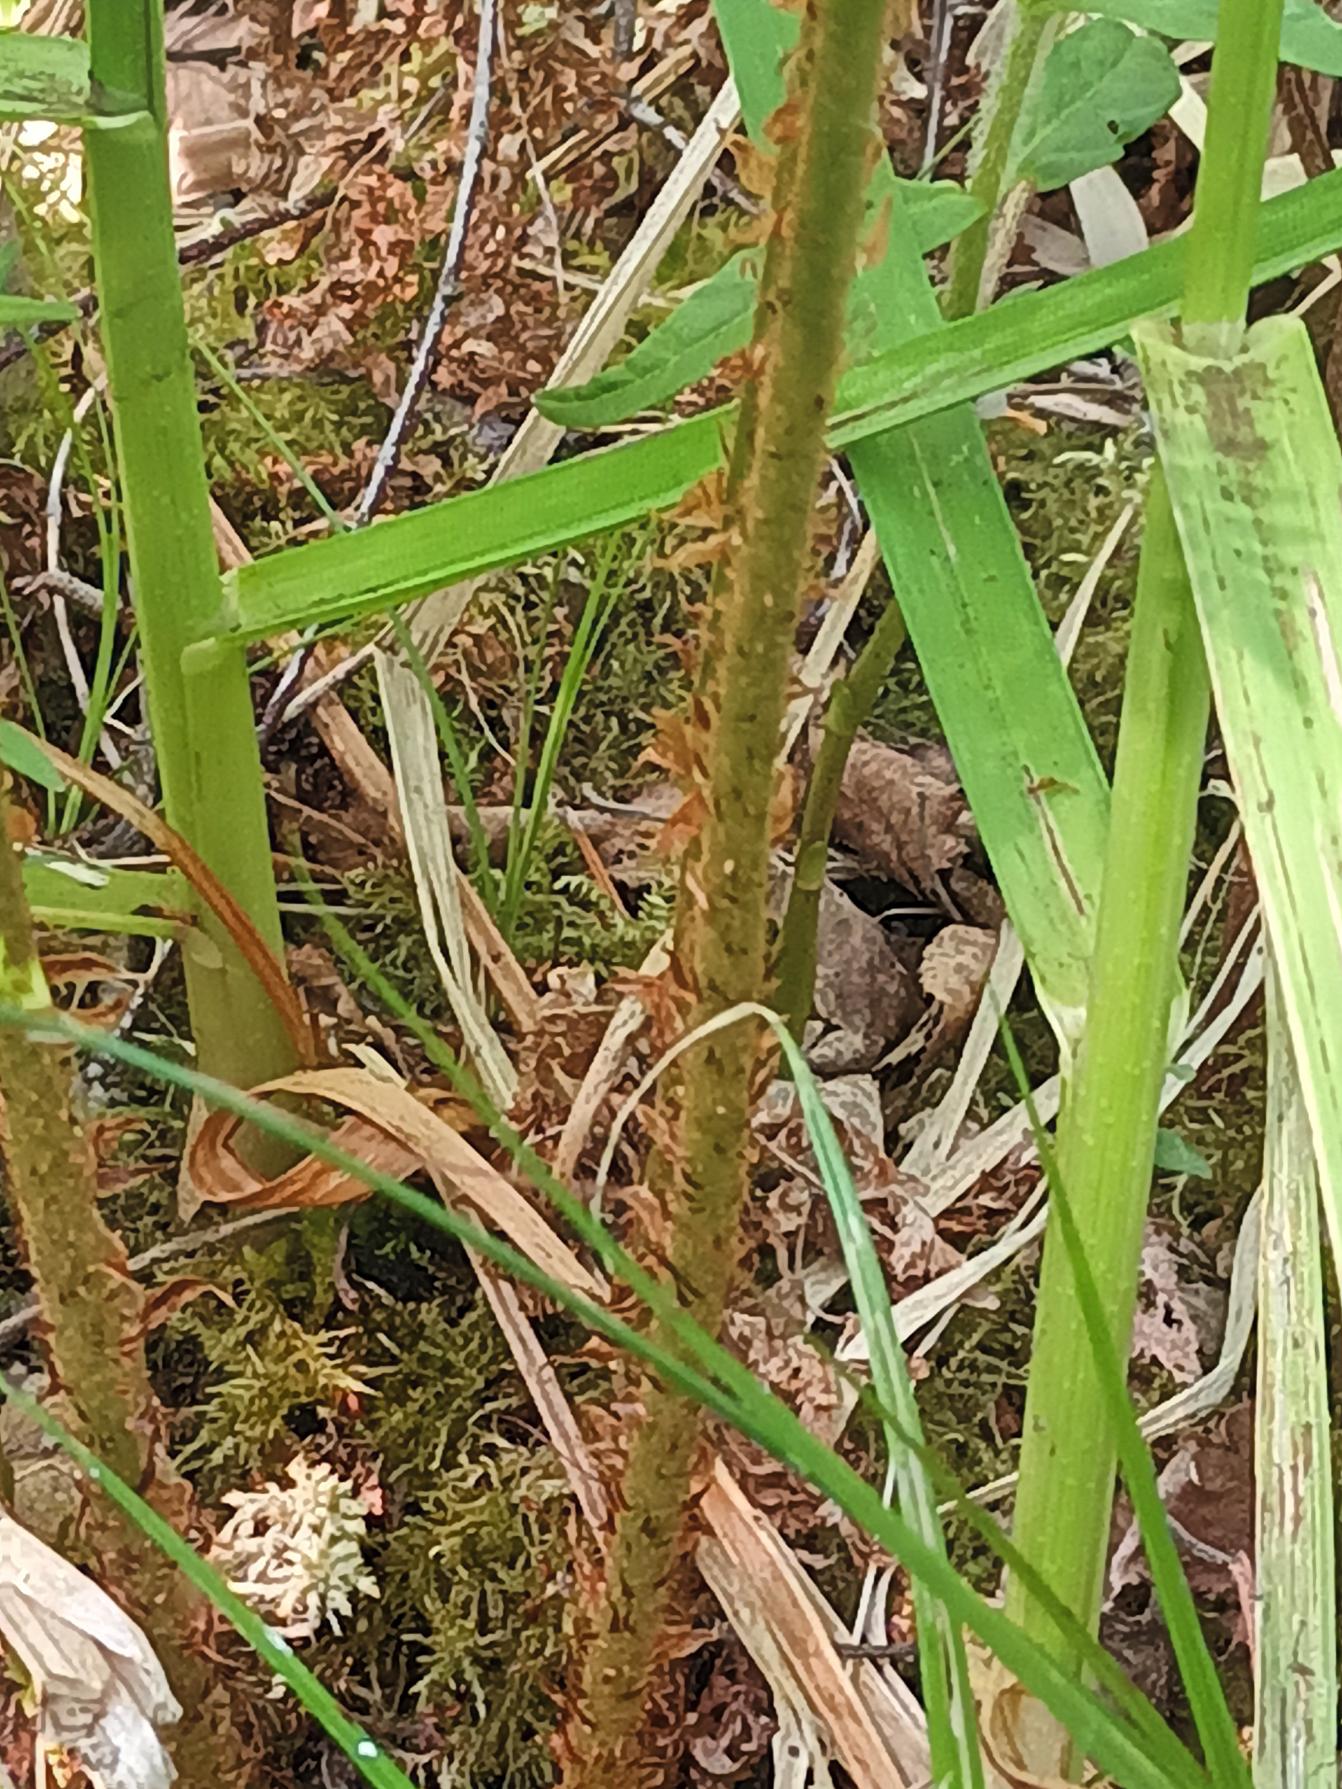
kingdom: Plantae
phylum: Tracheophyta
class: Polypodiopsida
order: Polypodiales
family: Dryopteridaceae
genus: Dryopteris
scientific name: Dryopteris expansa
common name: Finbladet mangeløv
